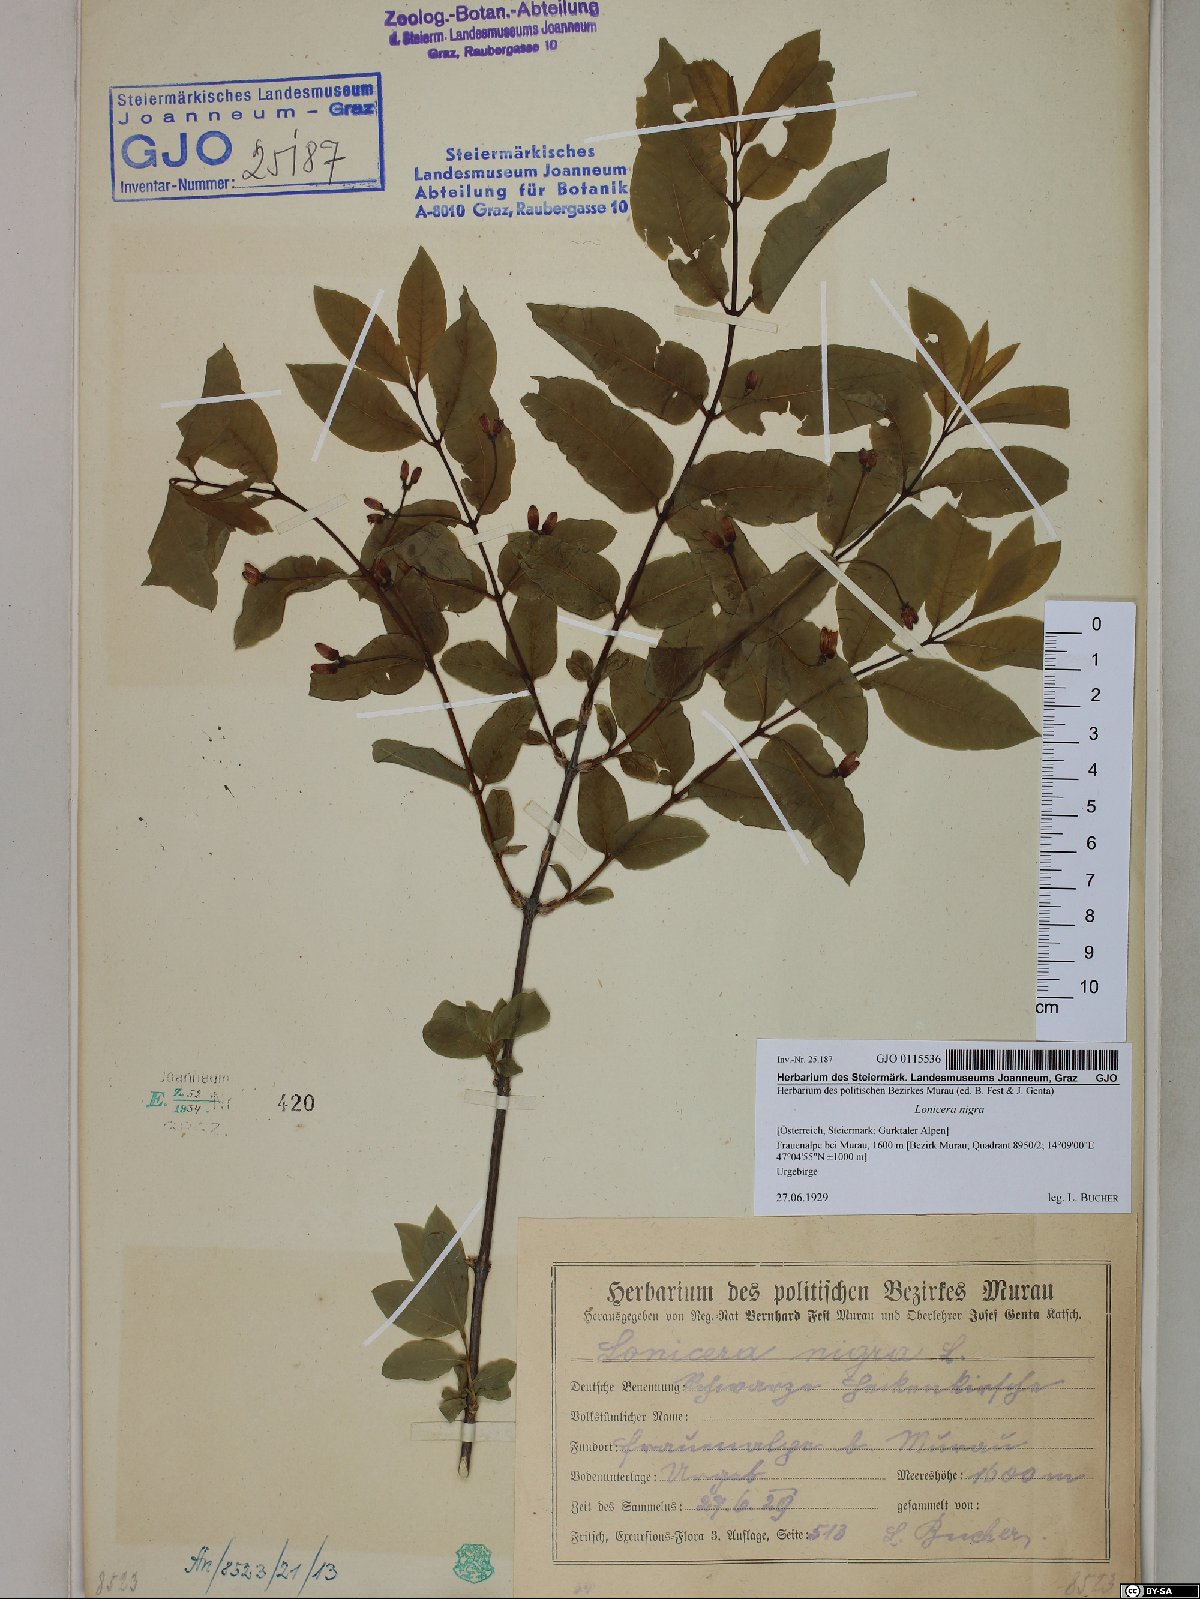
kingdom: Plantae
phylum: Tracheophyta
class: Magnoliopsida
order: Dipsacales
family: Caprifoliaceae
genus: Lonicera
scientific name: Lonicera nigra
